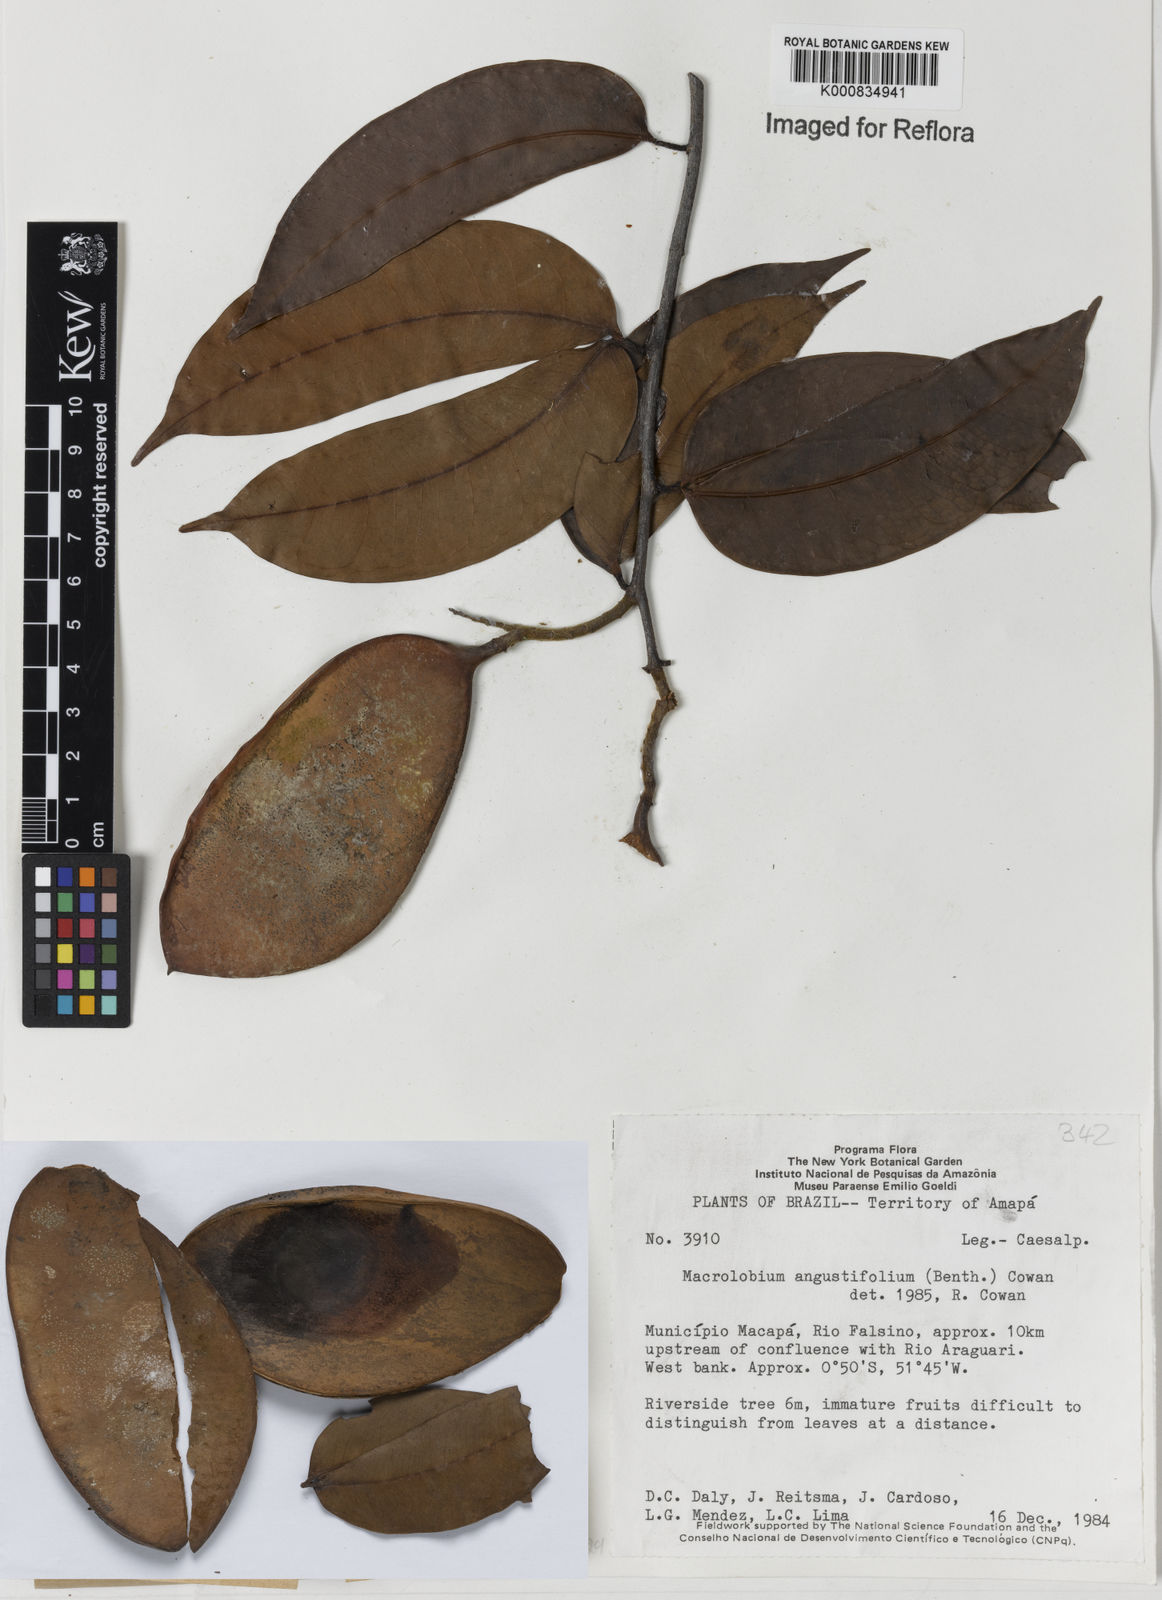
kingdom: Plantae
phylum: Tracheophyta
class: Magnoliopsida
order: Fabales
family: Fabaceae
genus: Macrolobium
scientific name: Macrolobium angustifolium
